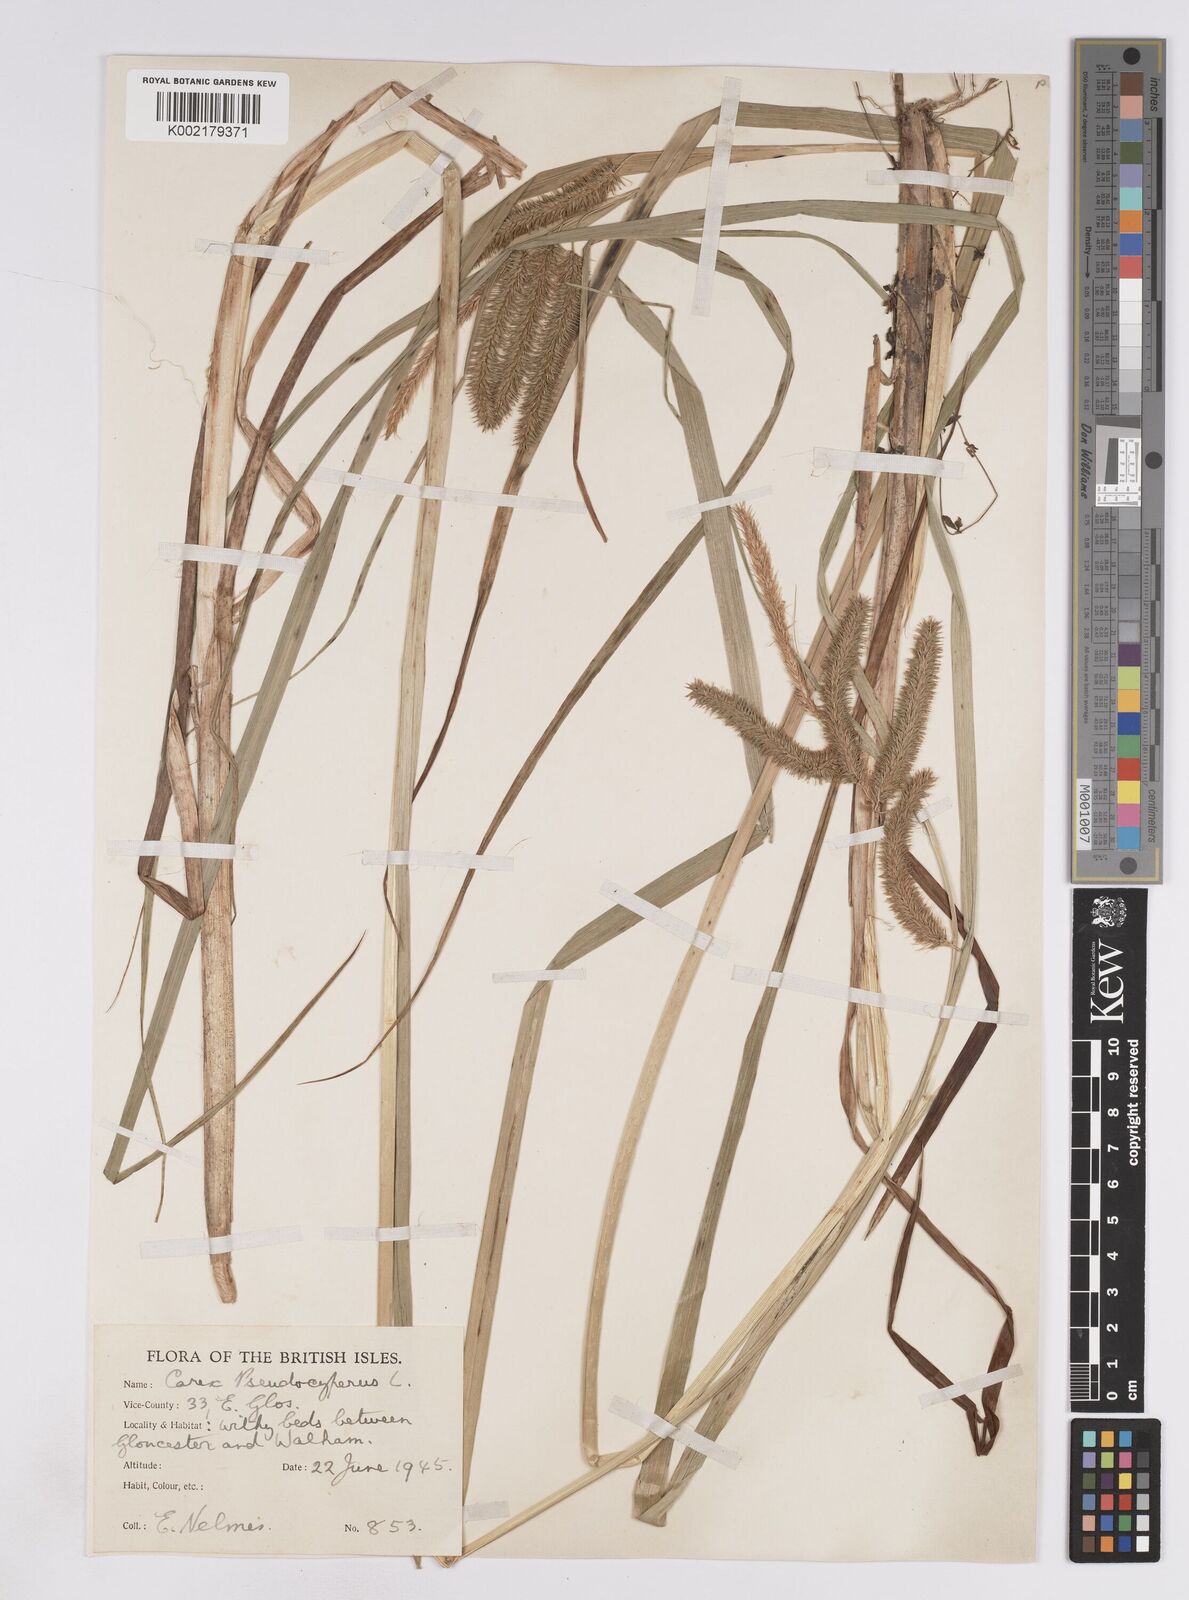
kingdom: Plantae
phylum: Tracheophyta
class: Liliopsida
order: Poales
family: Cyperaceae
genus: Carex
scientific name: Carex pseudocyperus
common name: Cyperus sedge
